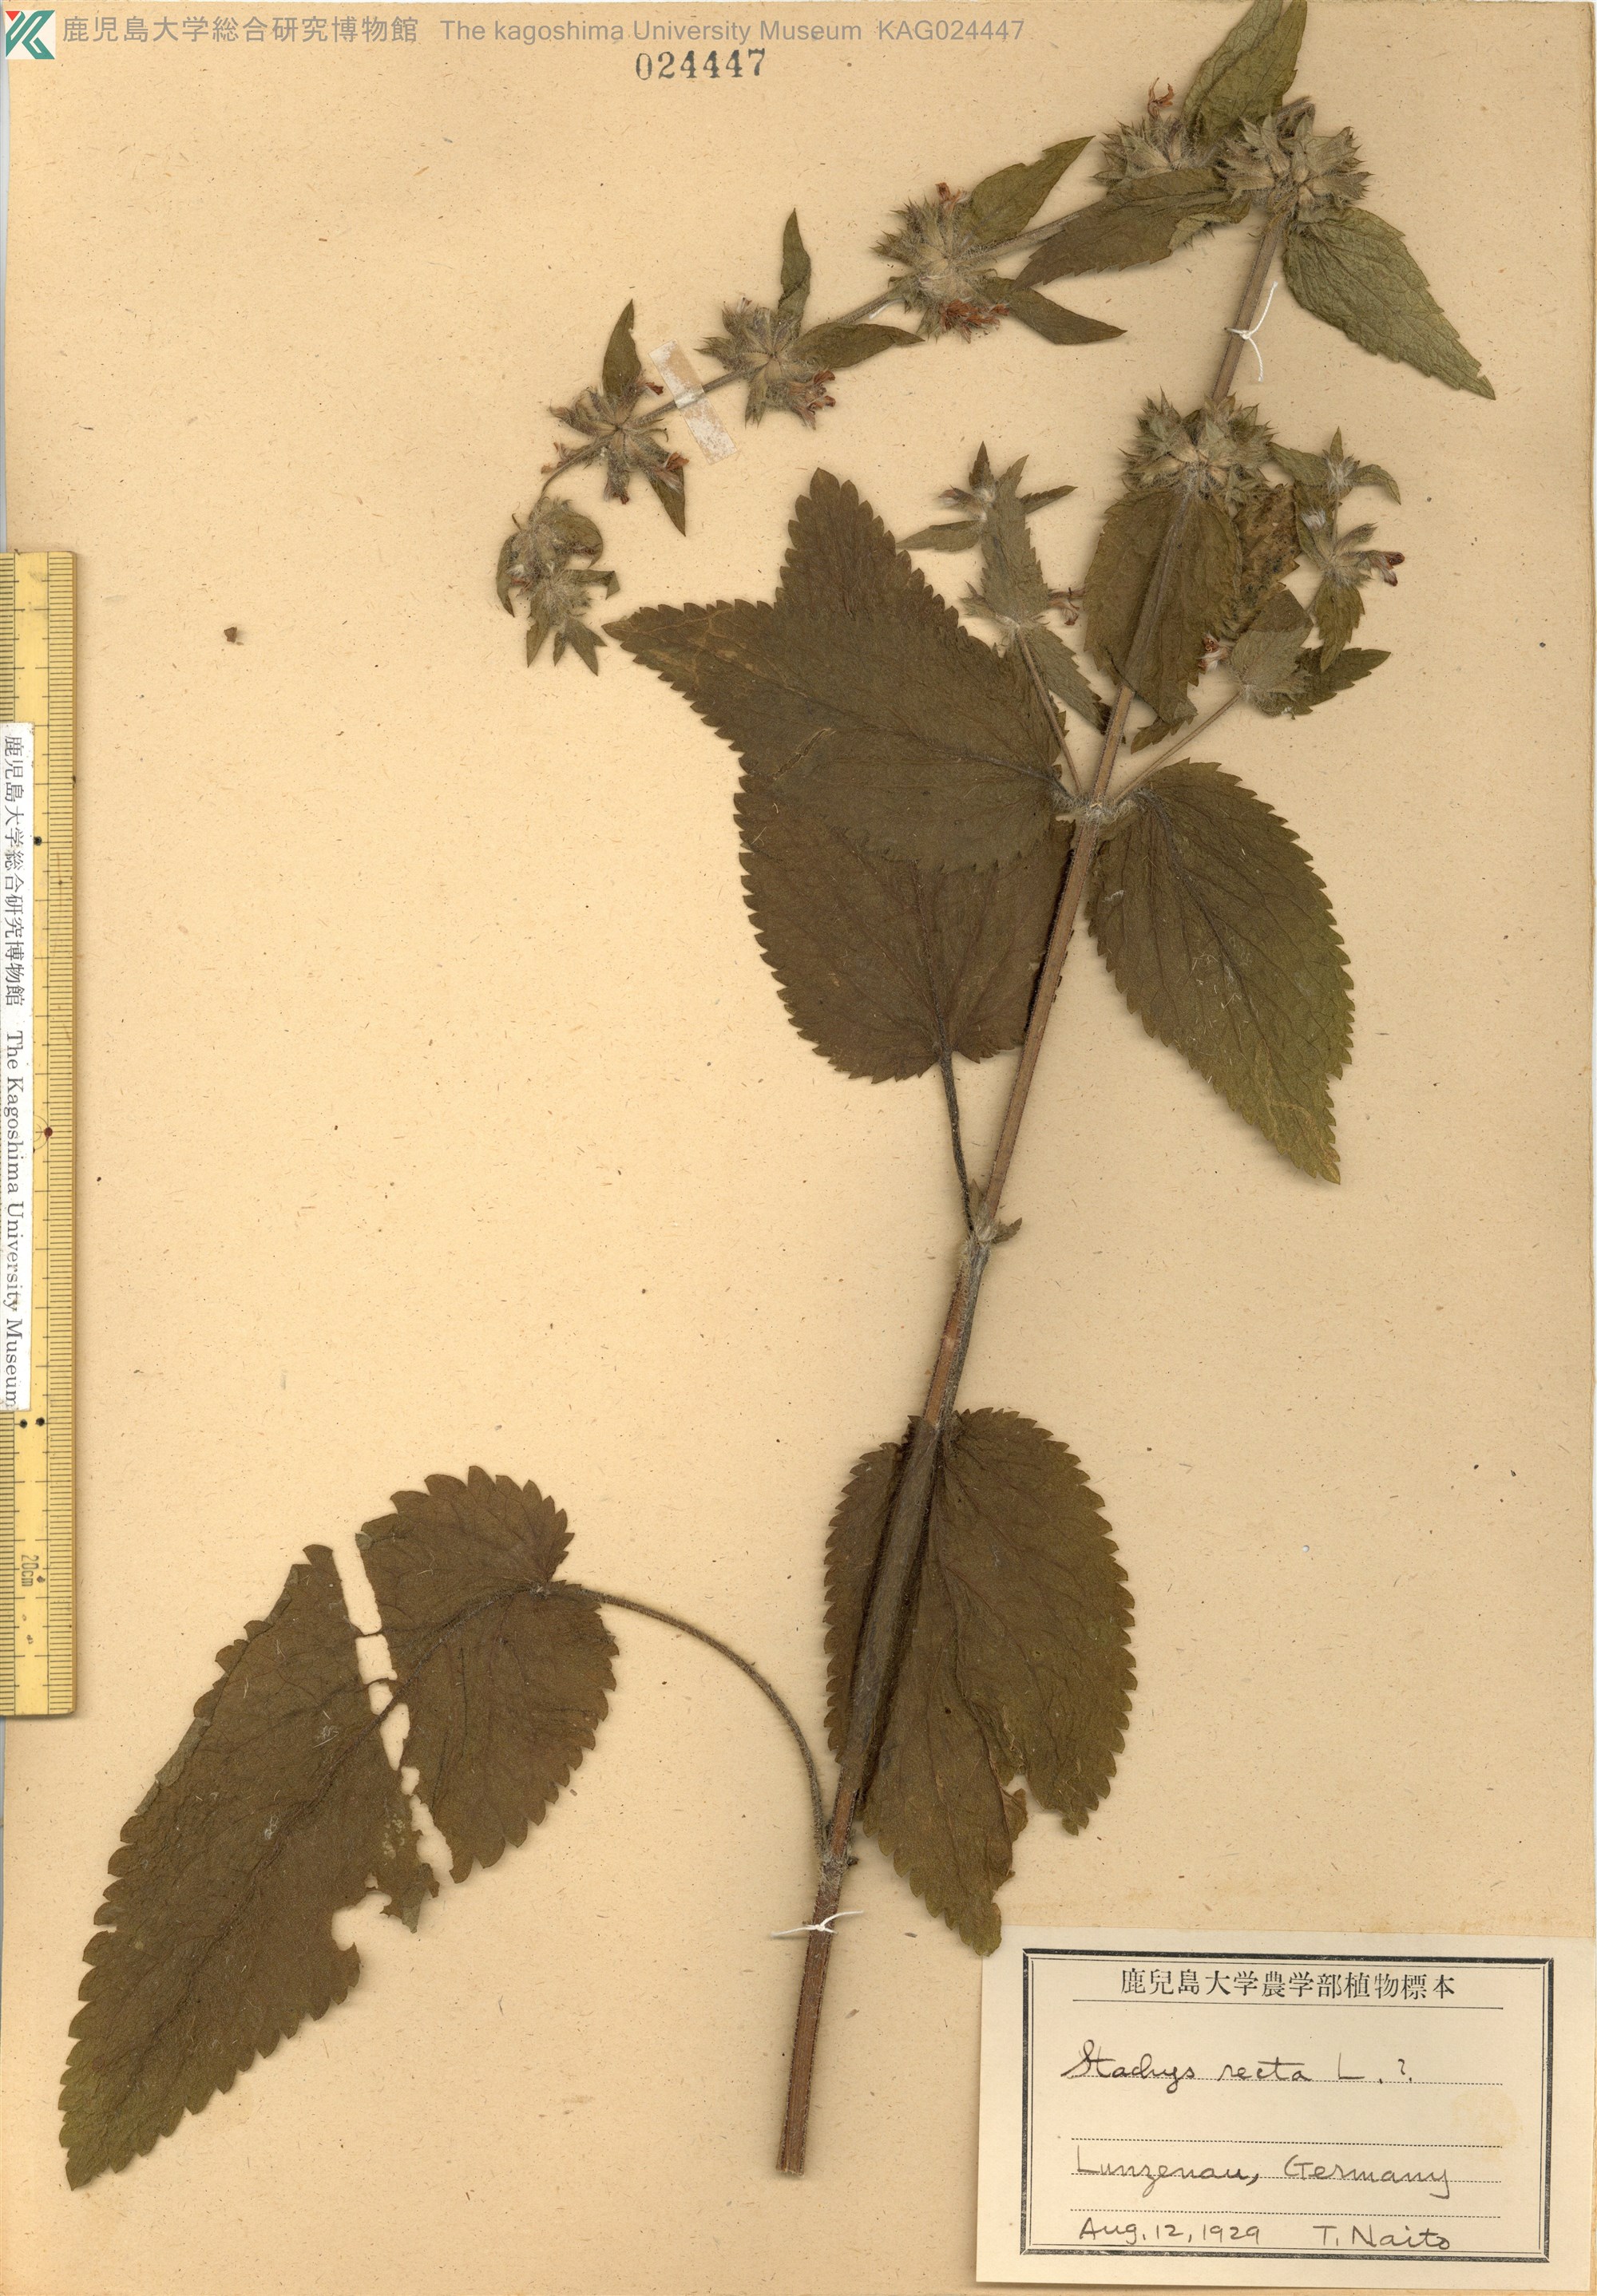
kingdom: Plantae
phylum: Tracheophyta
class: Magnoliopsida
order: Lamiales
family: Lamiaceae
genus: Stachys
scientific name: Stachys recta
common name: Perennial yellow-woundwort
